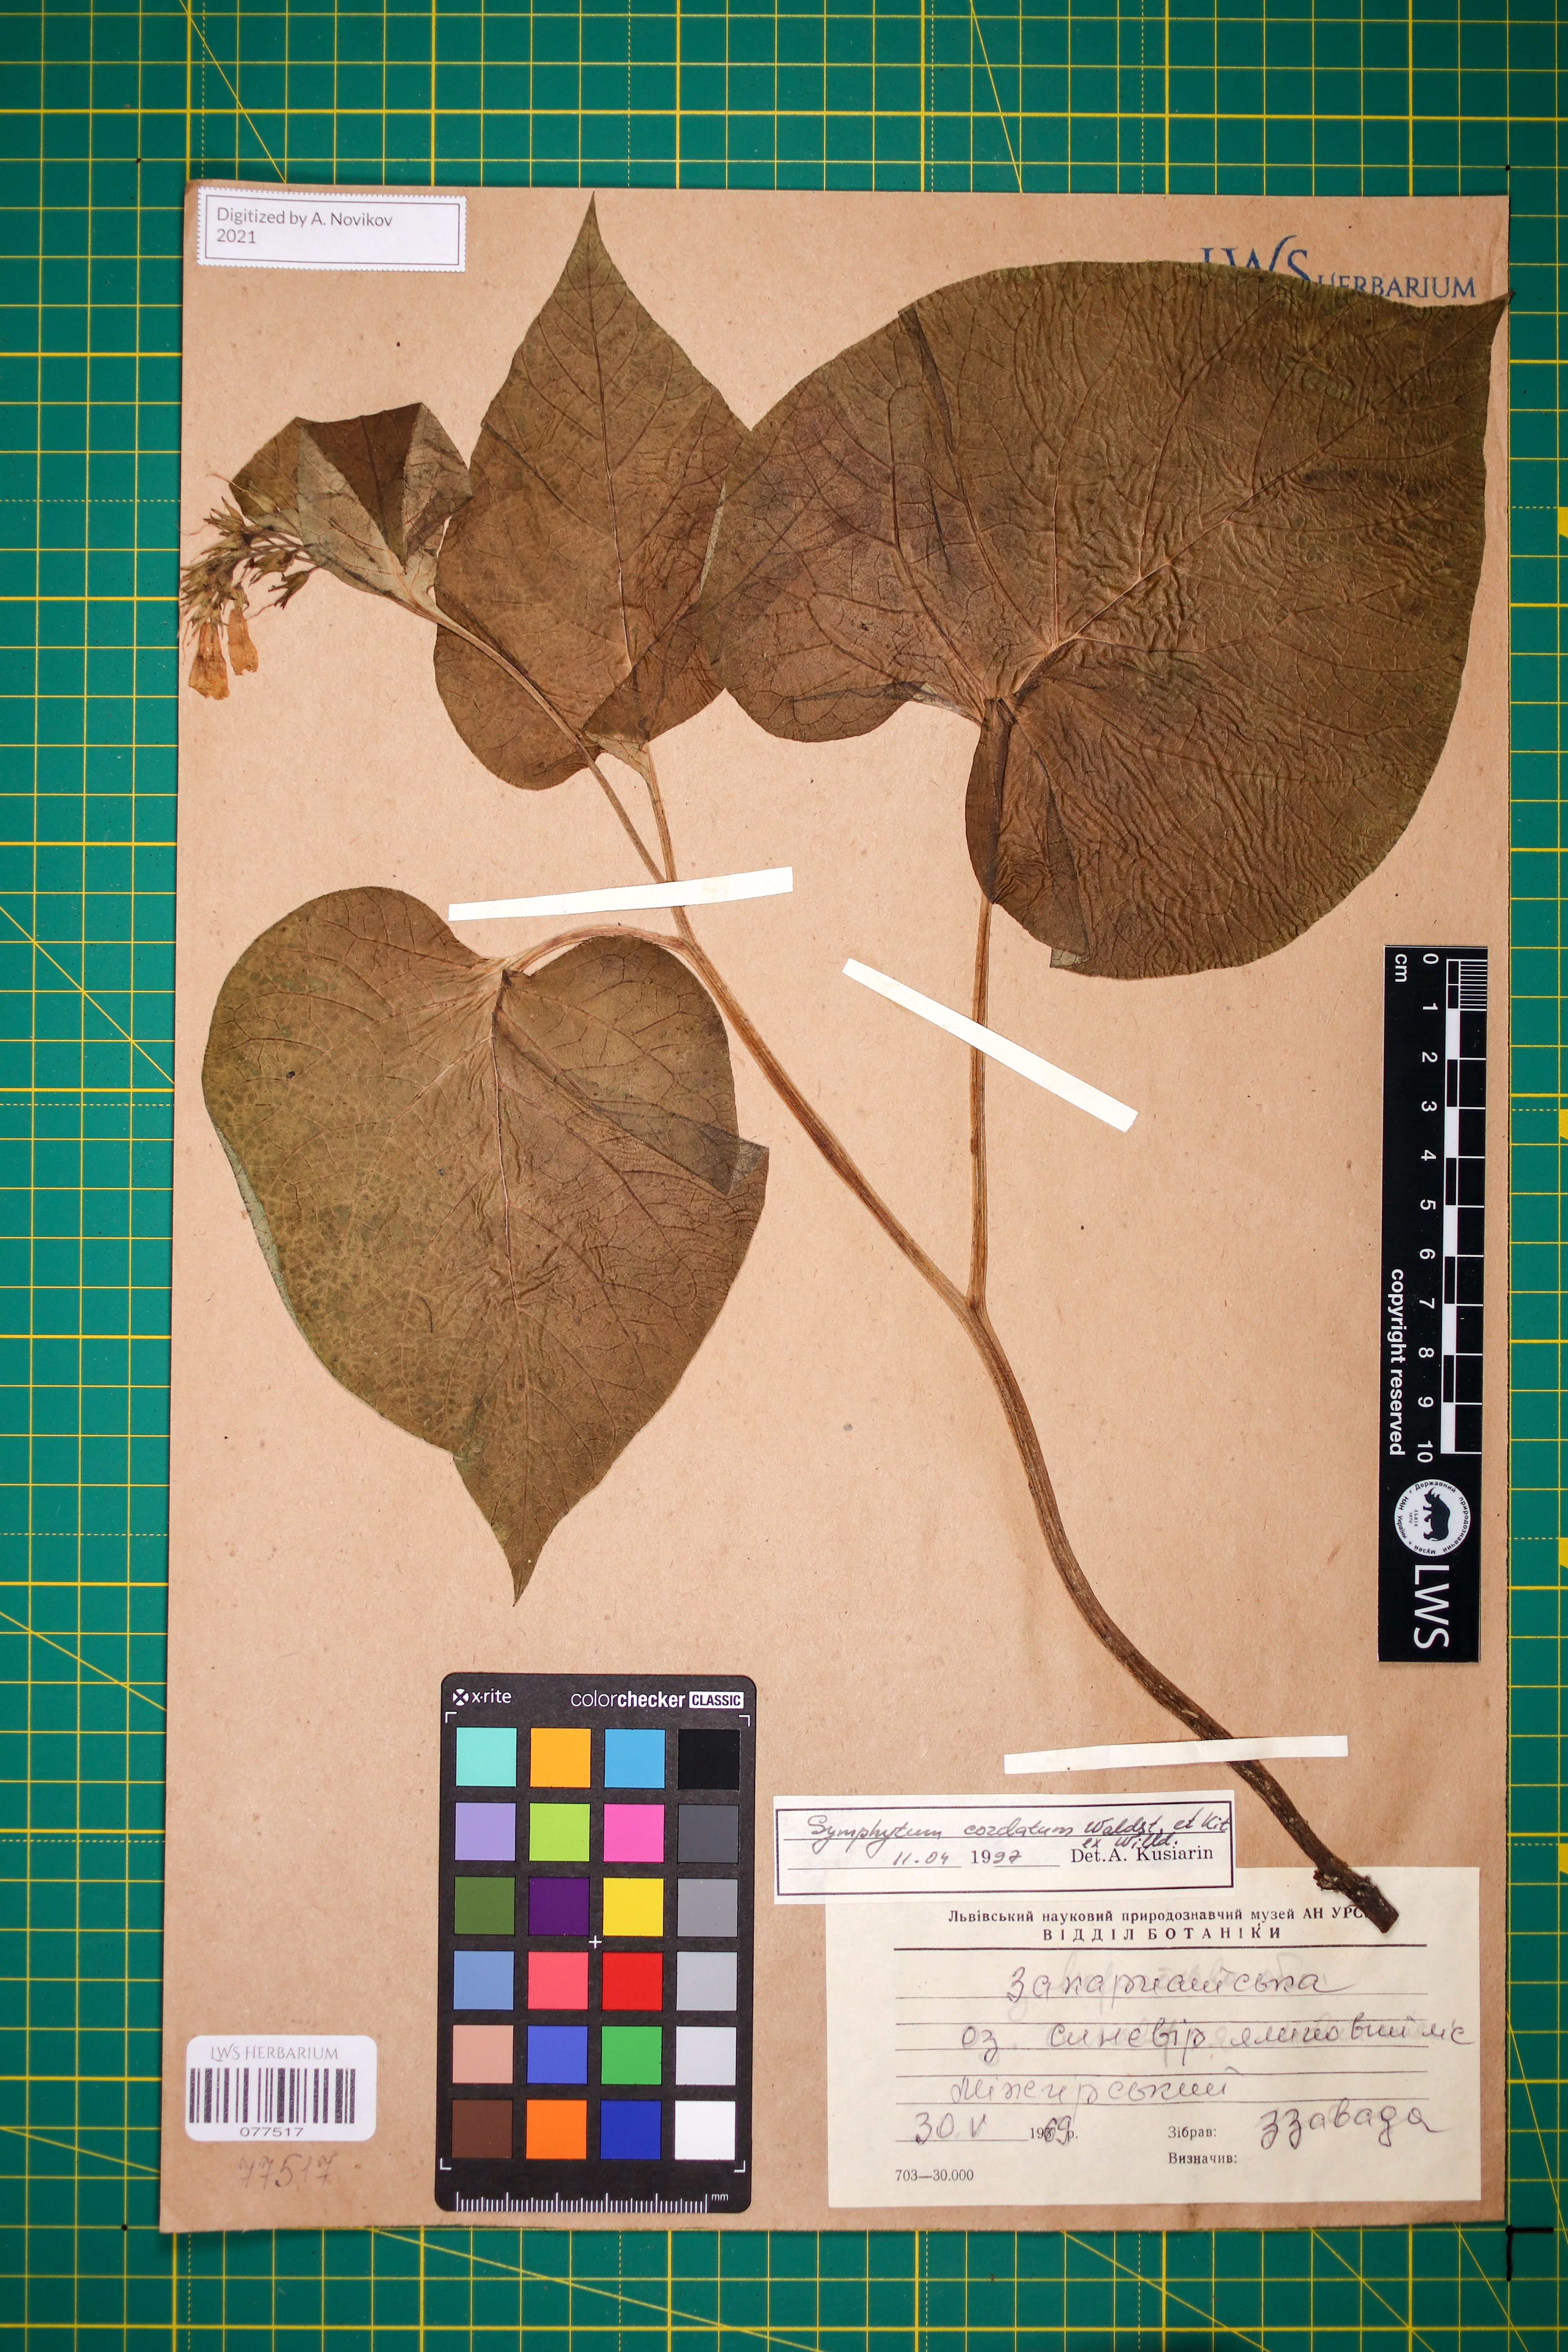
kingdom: Plantae
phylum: Tracheophyta
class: Magnoliopsida
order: Boraginales
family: Boraginaceae
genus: Symphytum
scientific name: Symphytum cordatum
